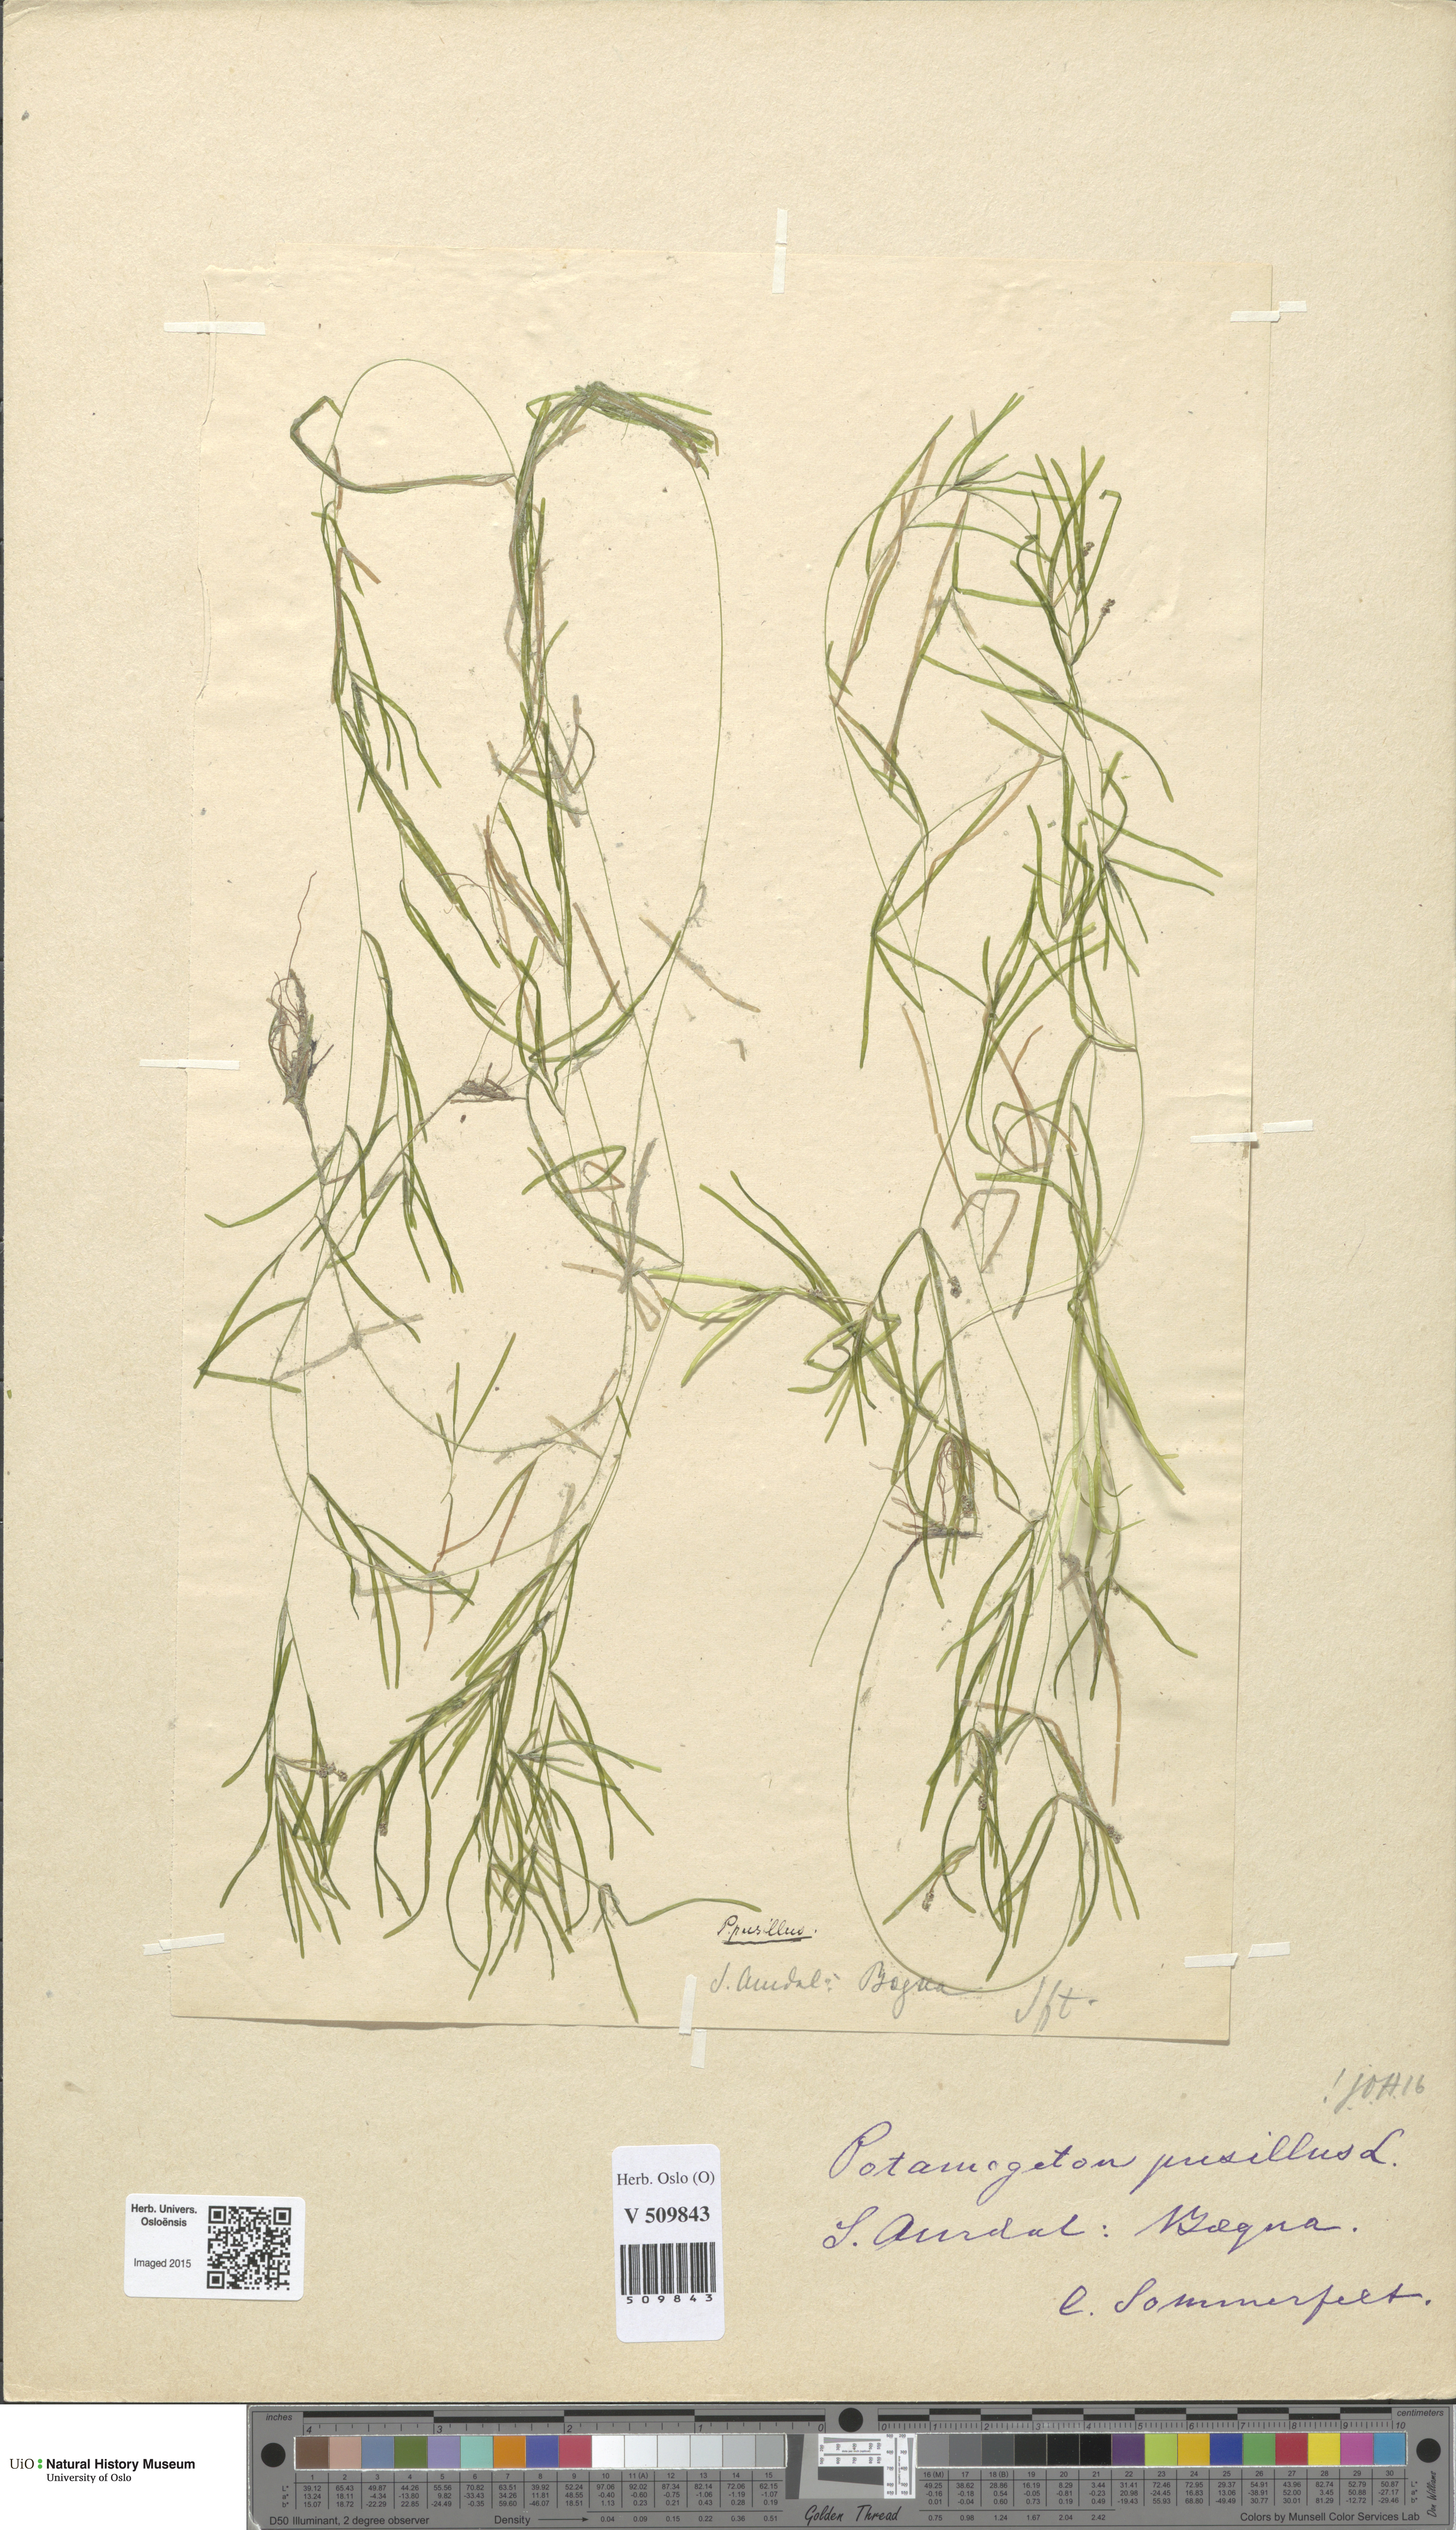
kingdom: Plantae
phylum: Tracheophyta
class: Liliopsida
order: Alismatales
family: Potamogetonaceae
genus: Potamogeton
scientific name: Potamogeton berchtoldii
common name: Small pondweed
